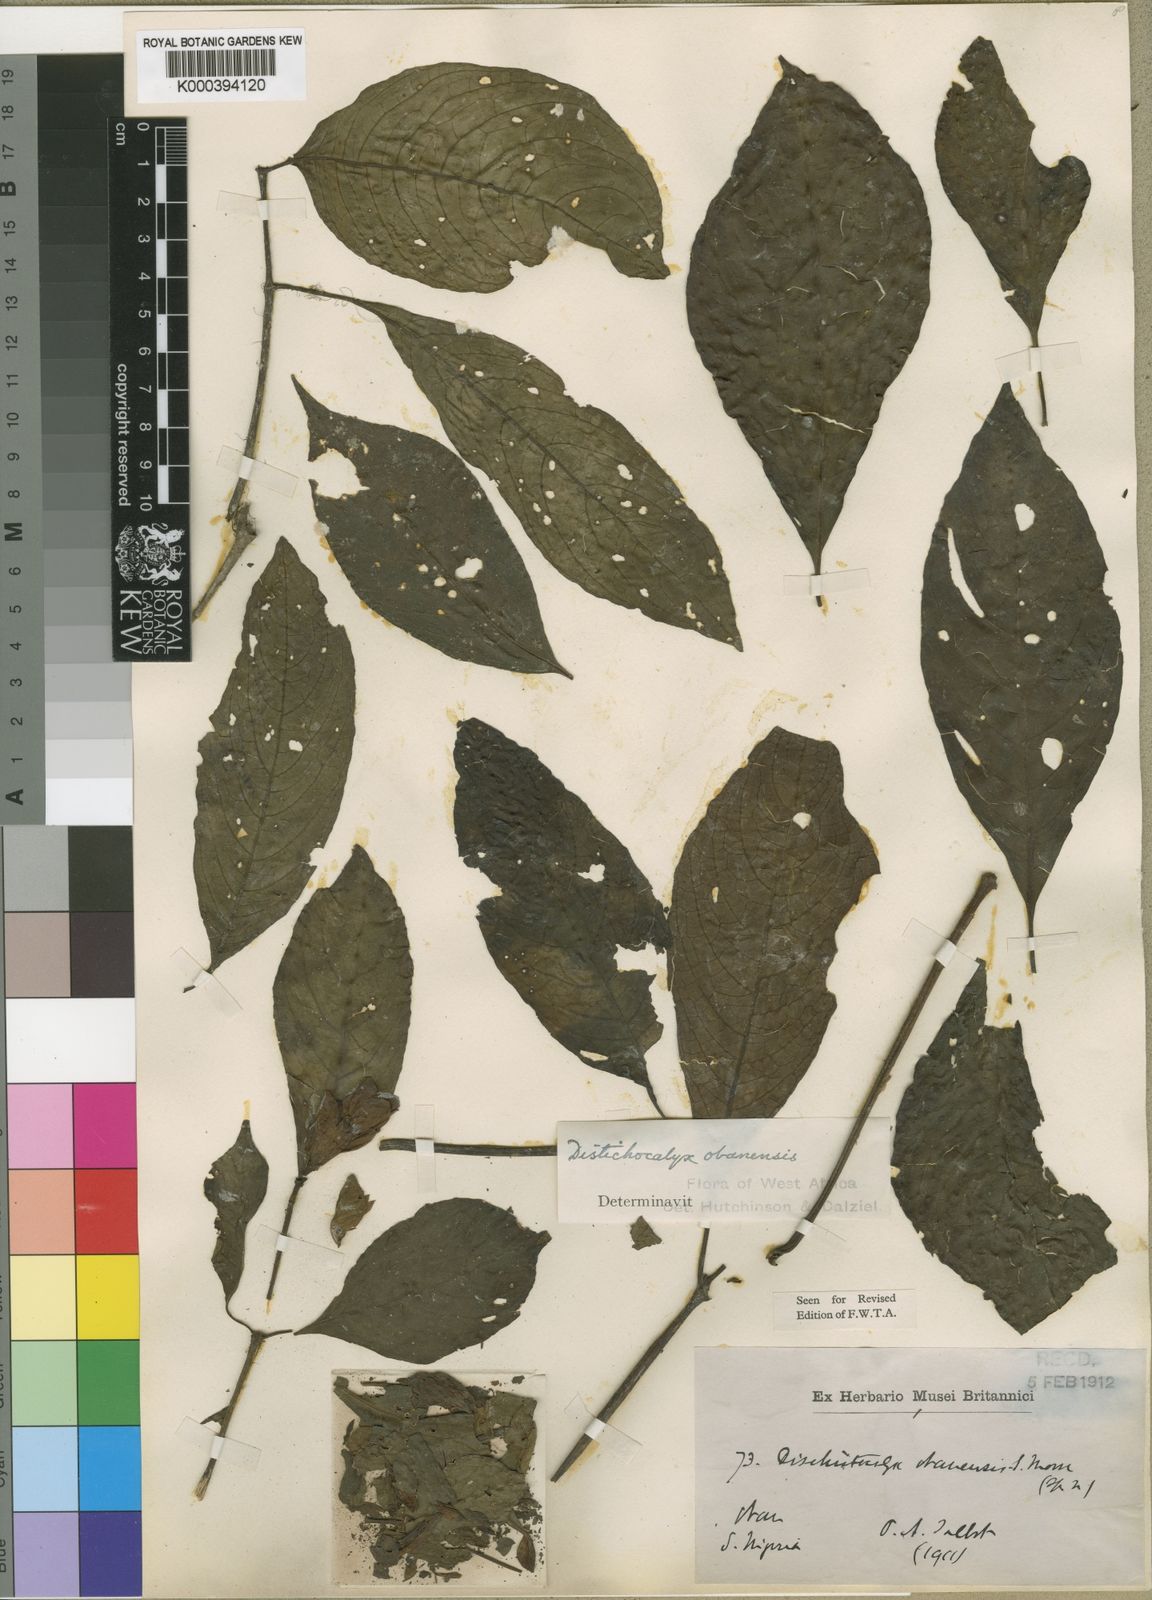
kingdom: Plantae
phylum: Tracheophyta
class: Magnoliopsida
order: Lamiales
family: Acanthaceae
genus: Dischistocalyx
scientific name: Dischistocalyx obanensis
